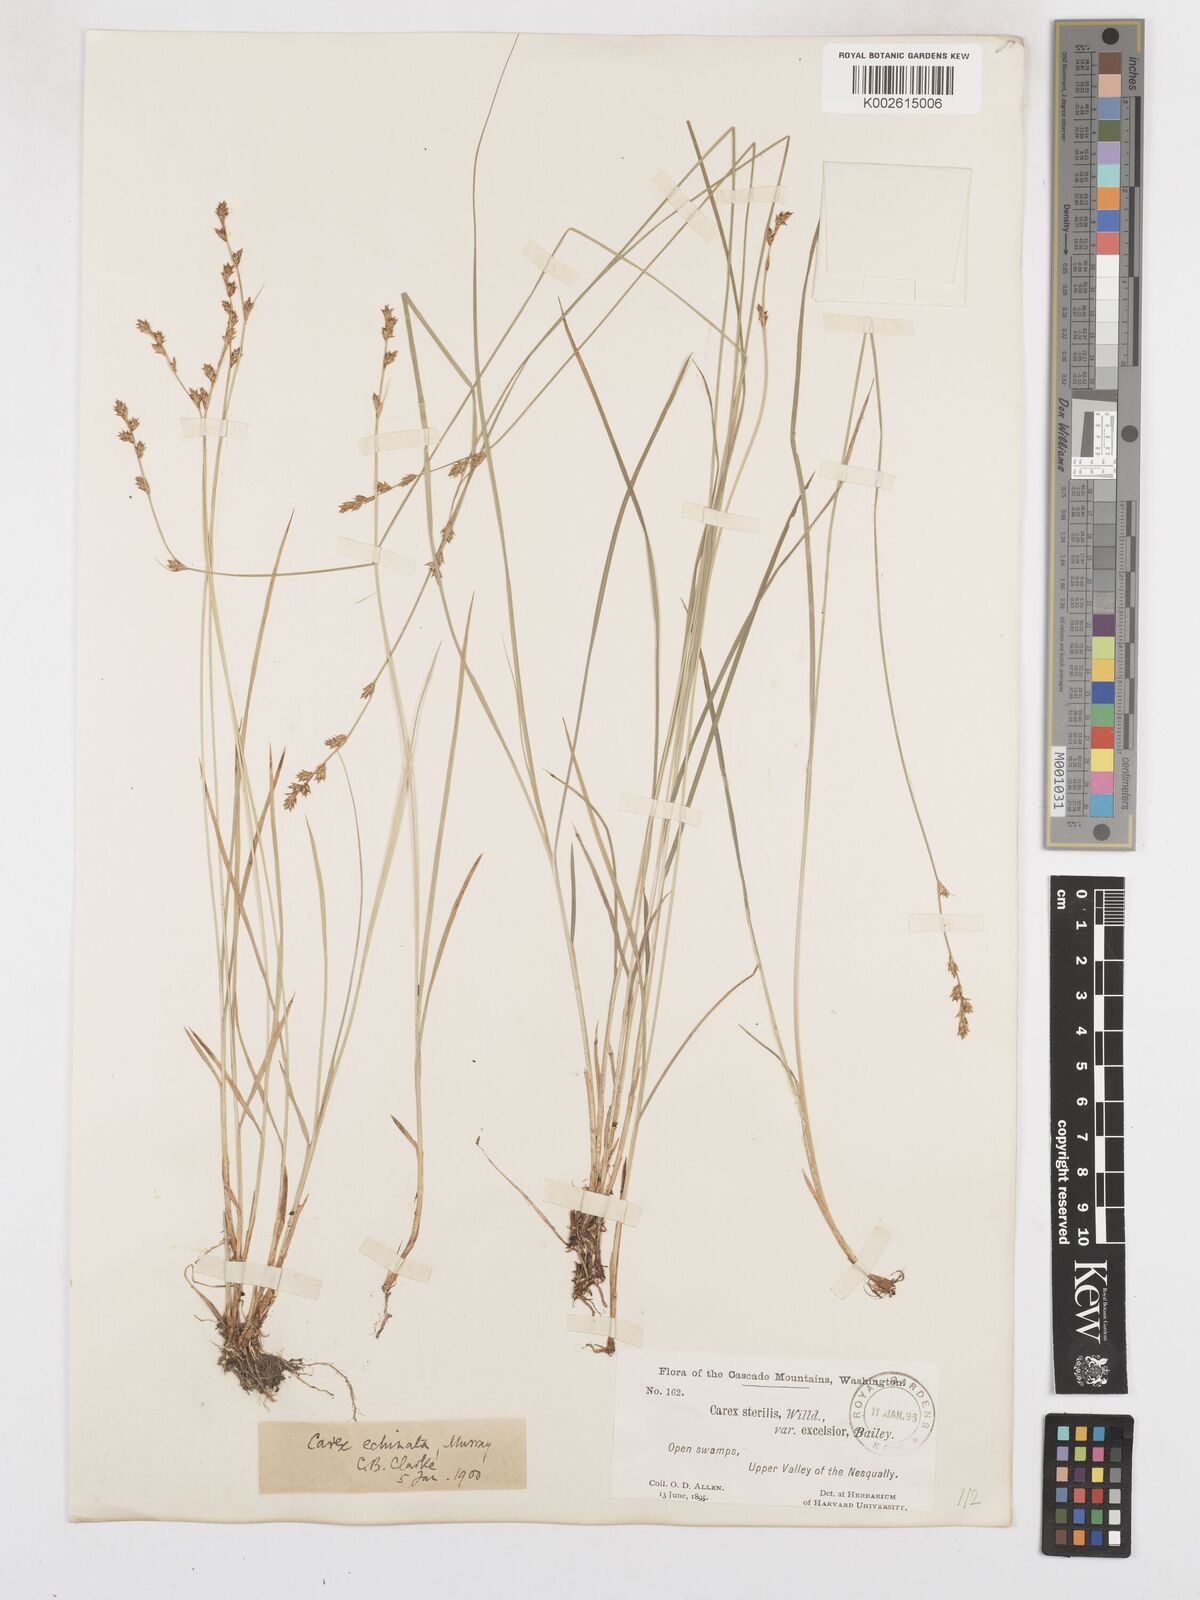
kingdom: Plantae
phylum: Tracheophyta
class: Liliopsida
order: Poales
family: Cyperaceae
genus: Carex
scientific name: Carex laeviculmis
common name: Smooth sedge
